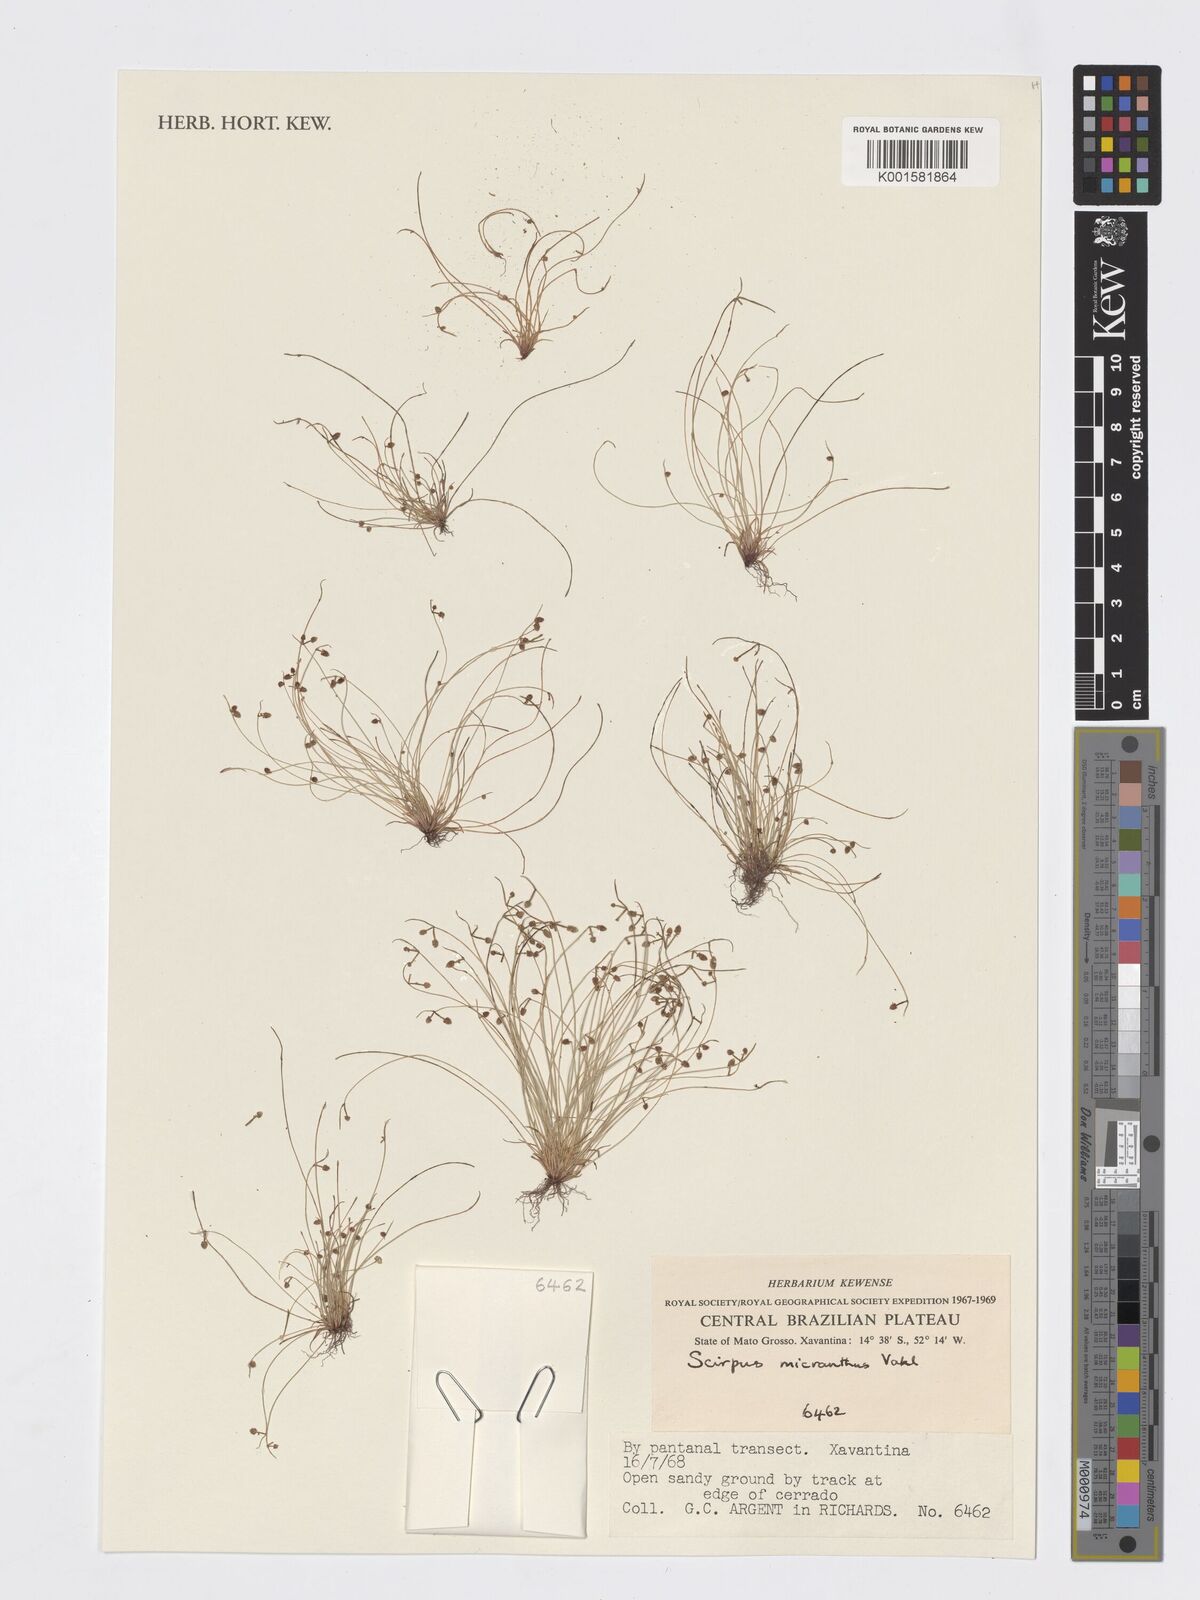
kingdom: Plantae
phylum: Tracheophyta
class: Liliopsida
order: Poales
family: Cyperaceae
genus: Cyperus
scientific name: Cyperus subsquarrosus
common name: Dwarf bulrush
